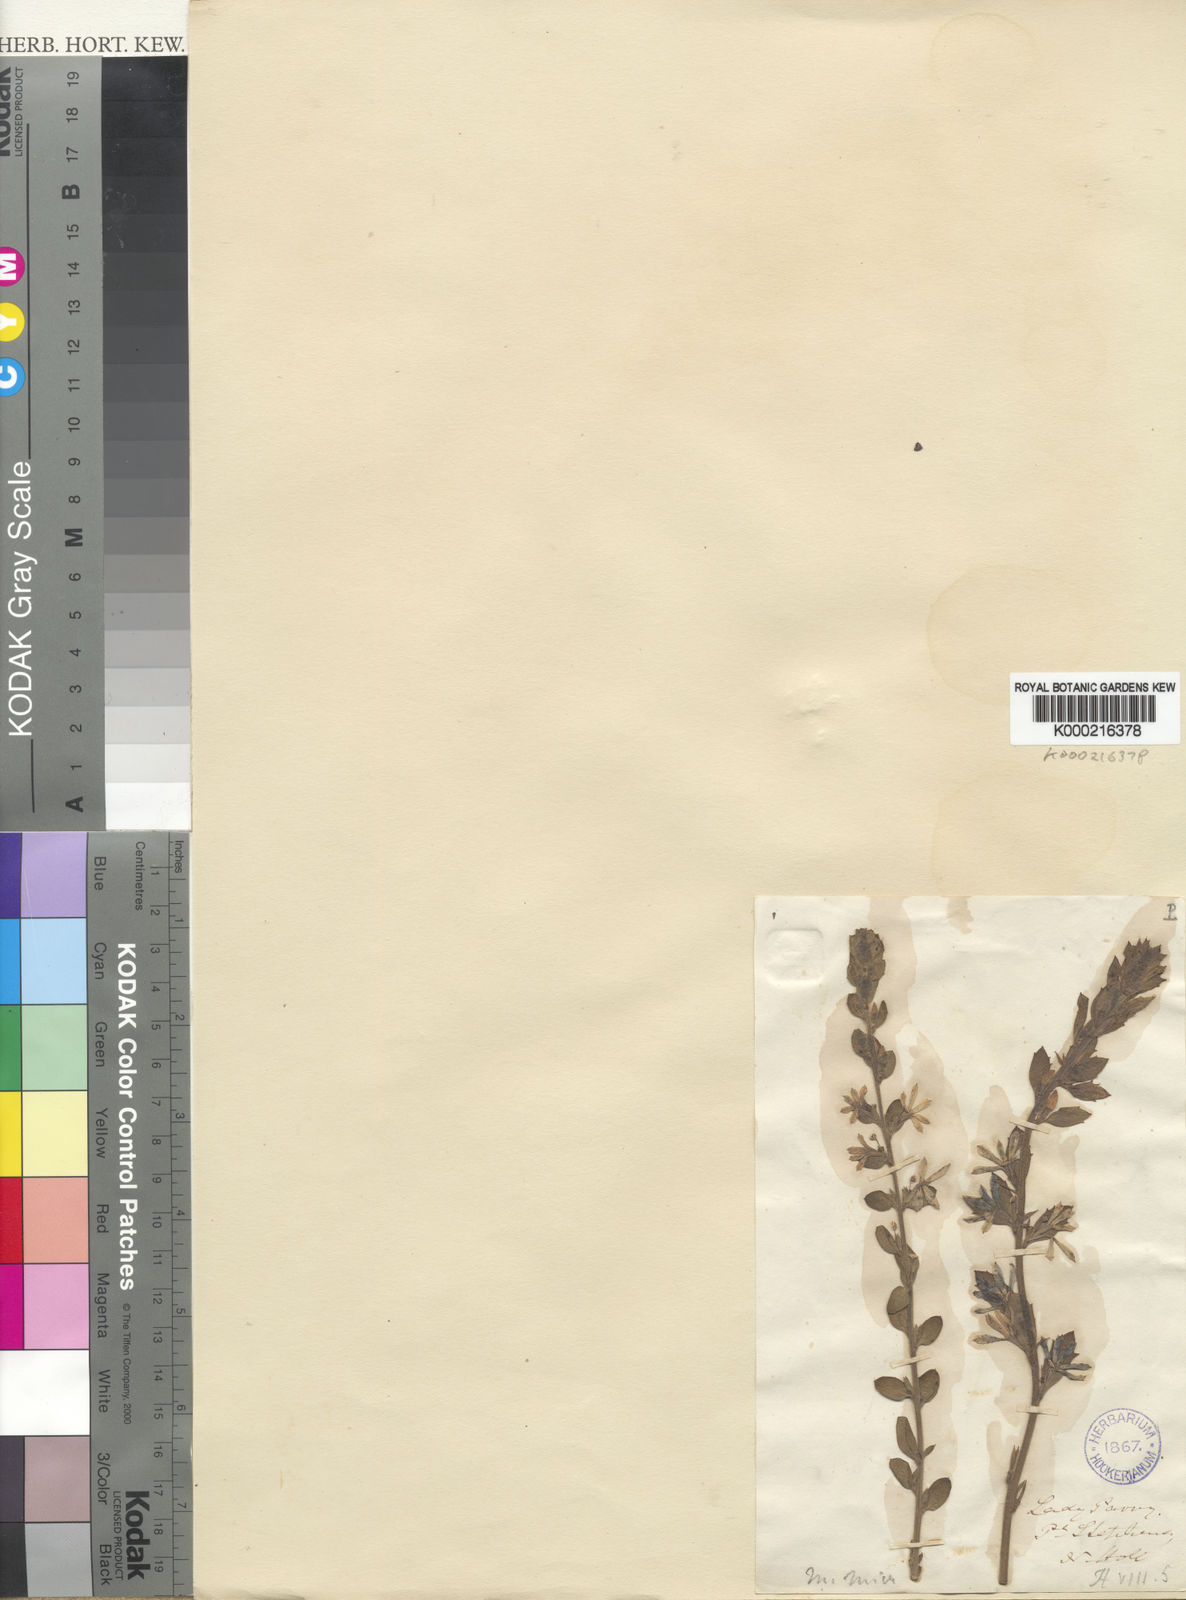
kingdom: Plantae
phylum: Tracheophyta
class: Magnoliopsida
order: Asterales
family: Goodeniaceae
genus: Scaevola
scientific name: Scaevola albida
